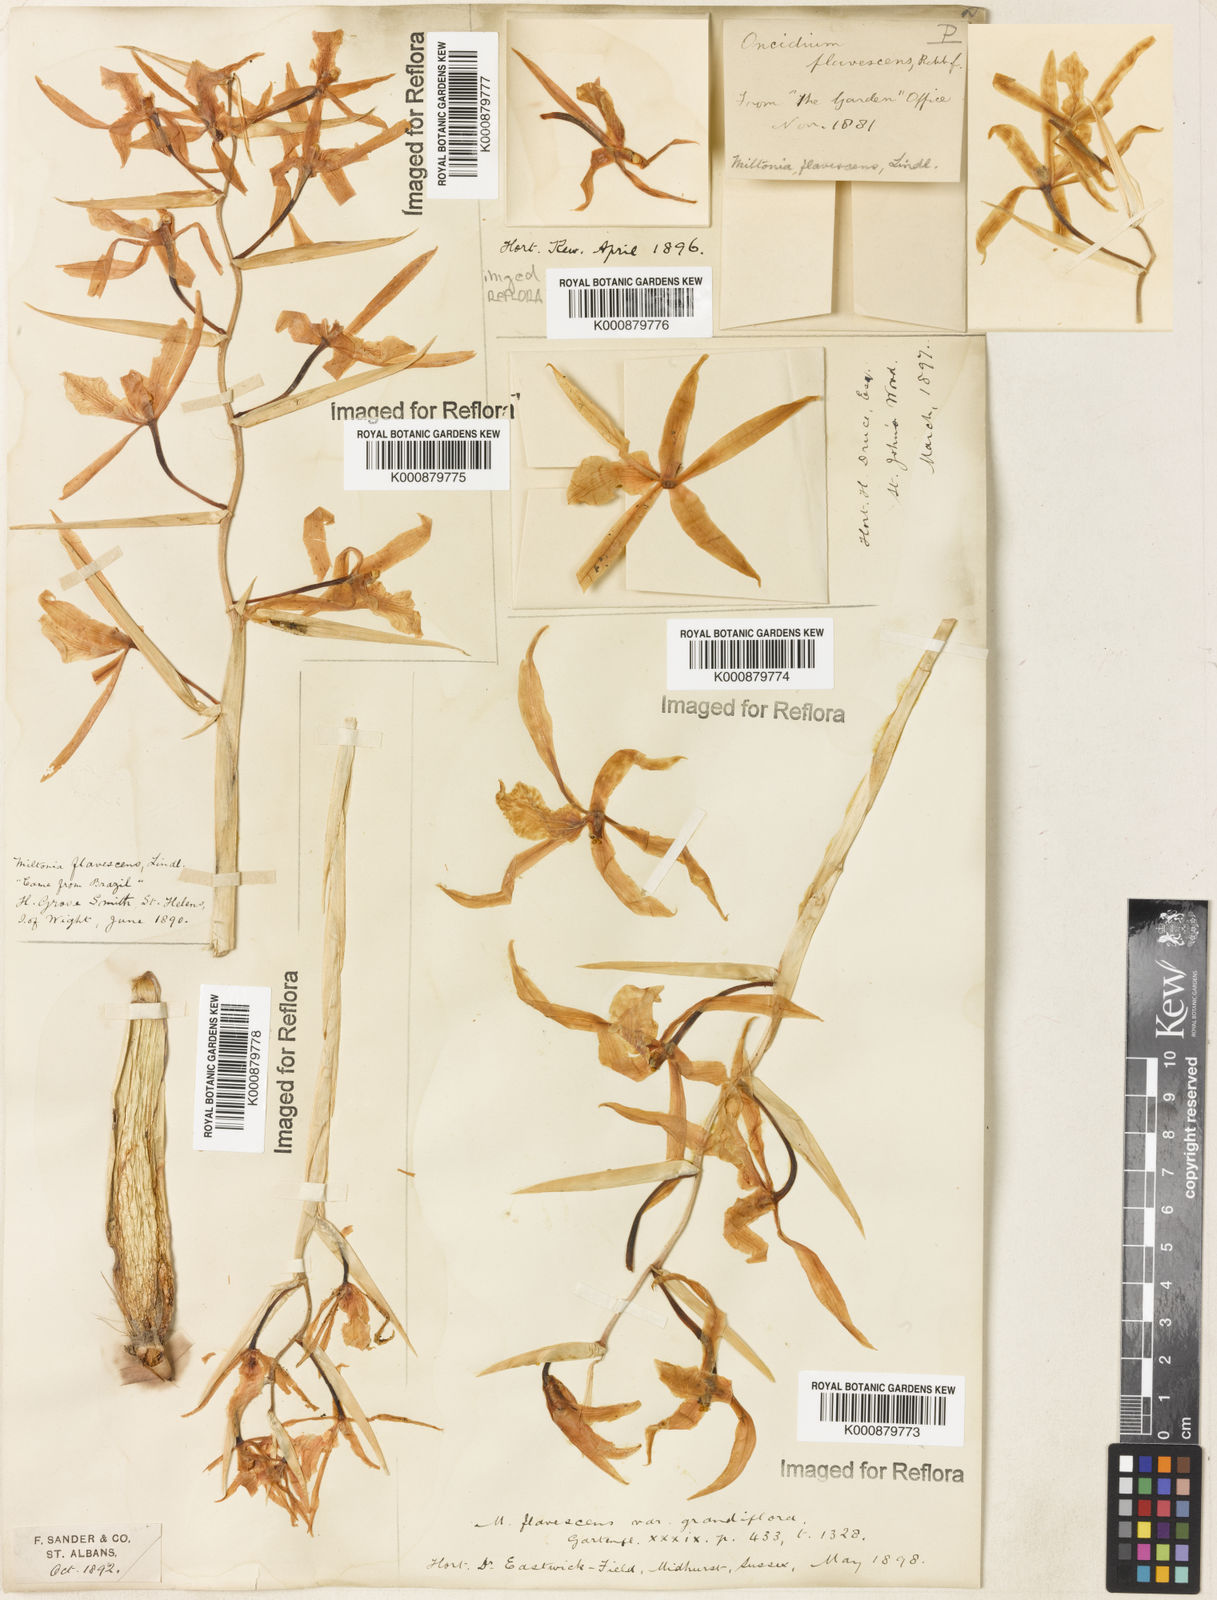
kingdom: Plantae
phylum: Tracheophyta
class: Liliopsida
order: Asparagales
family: Orchidaceae
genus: Miltonia
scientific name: Miltonia flavescens
